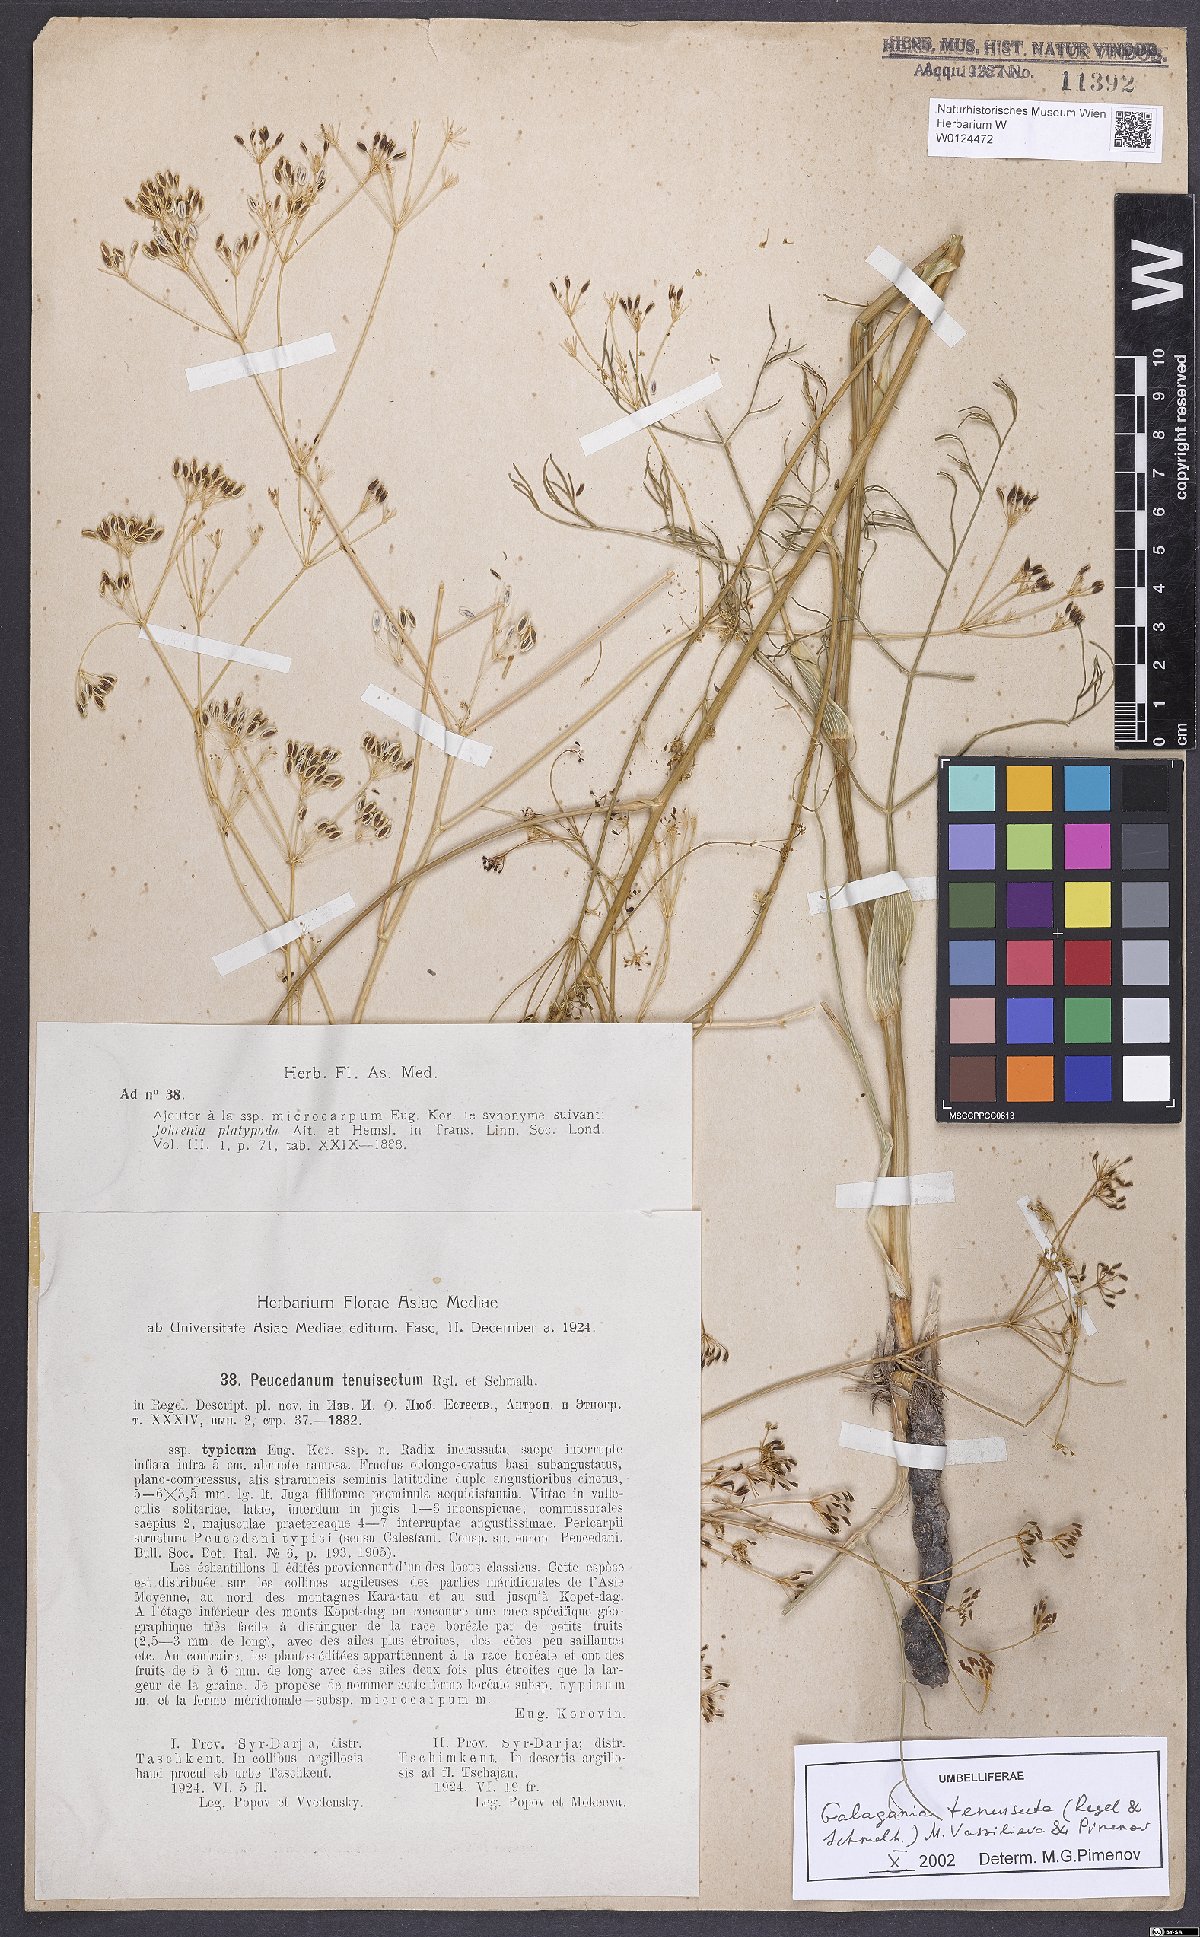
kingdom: Plantae
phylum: Tracheophyta
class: Magnoliopsida
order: Apiales
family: Apiaceae
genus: Galagania
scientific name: Galagania tenuisecta
